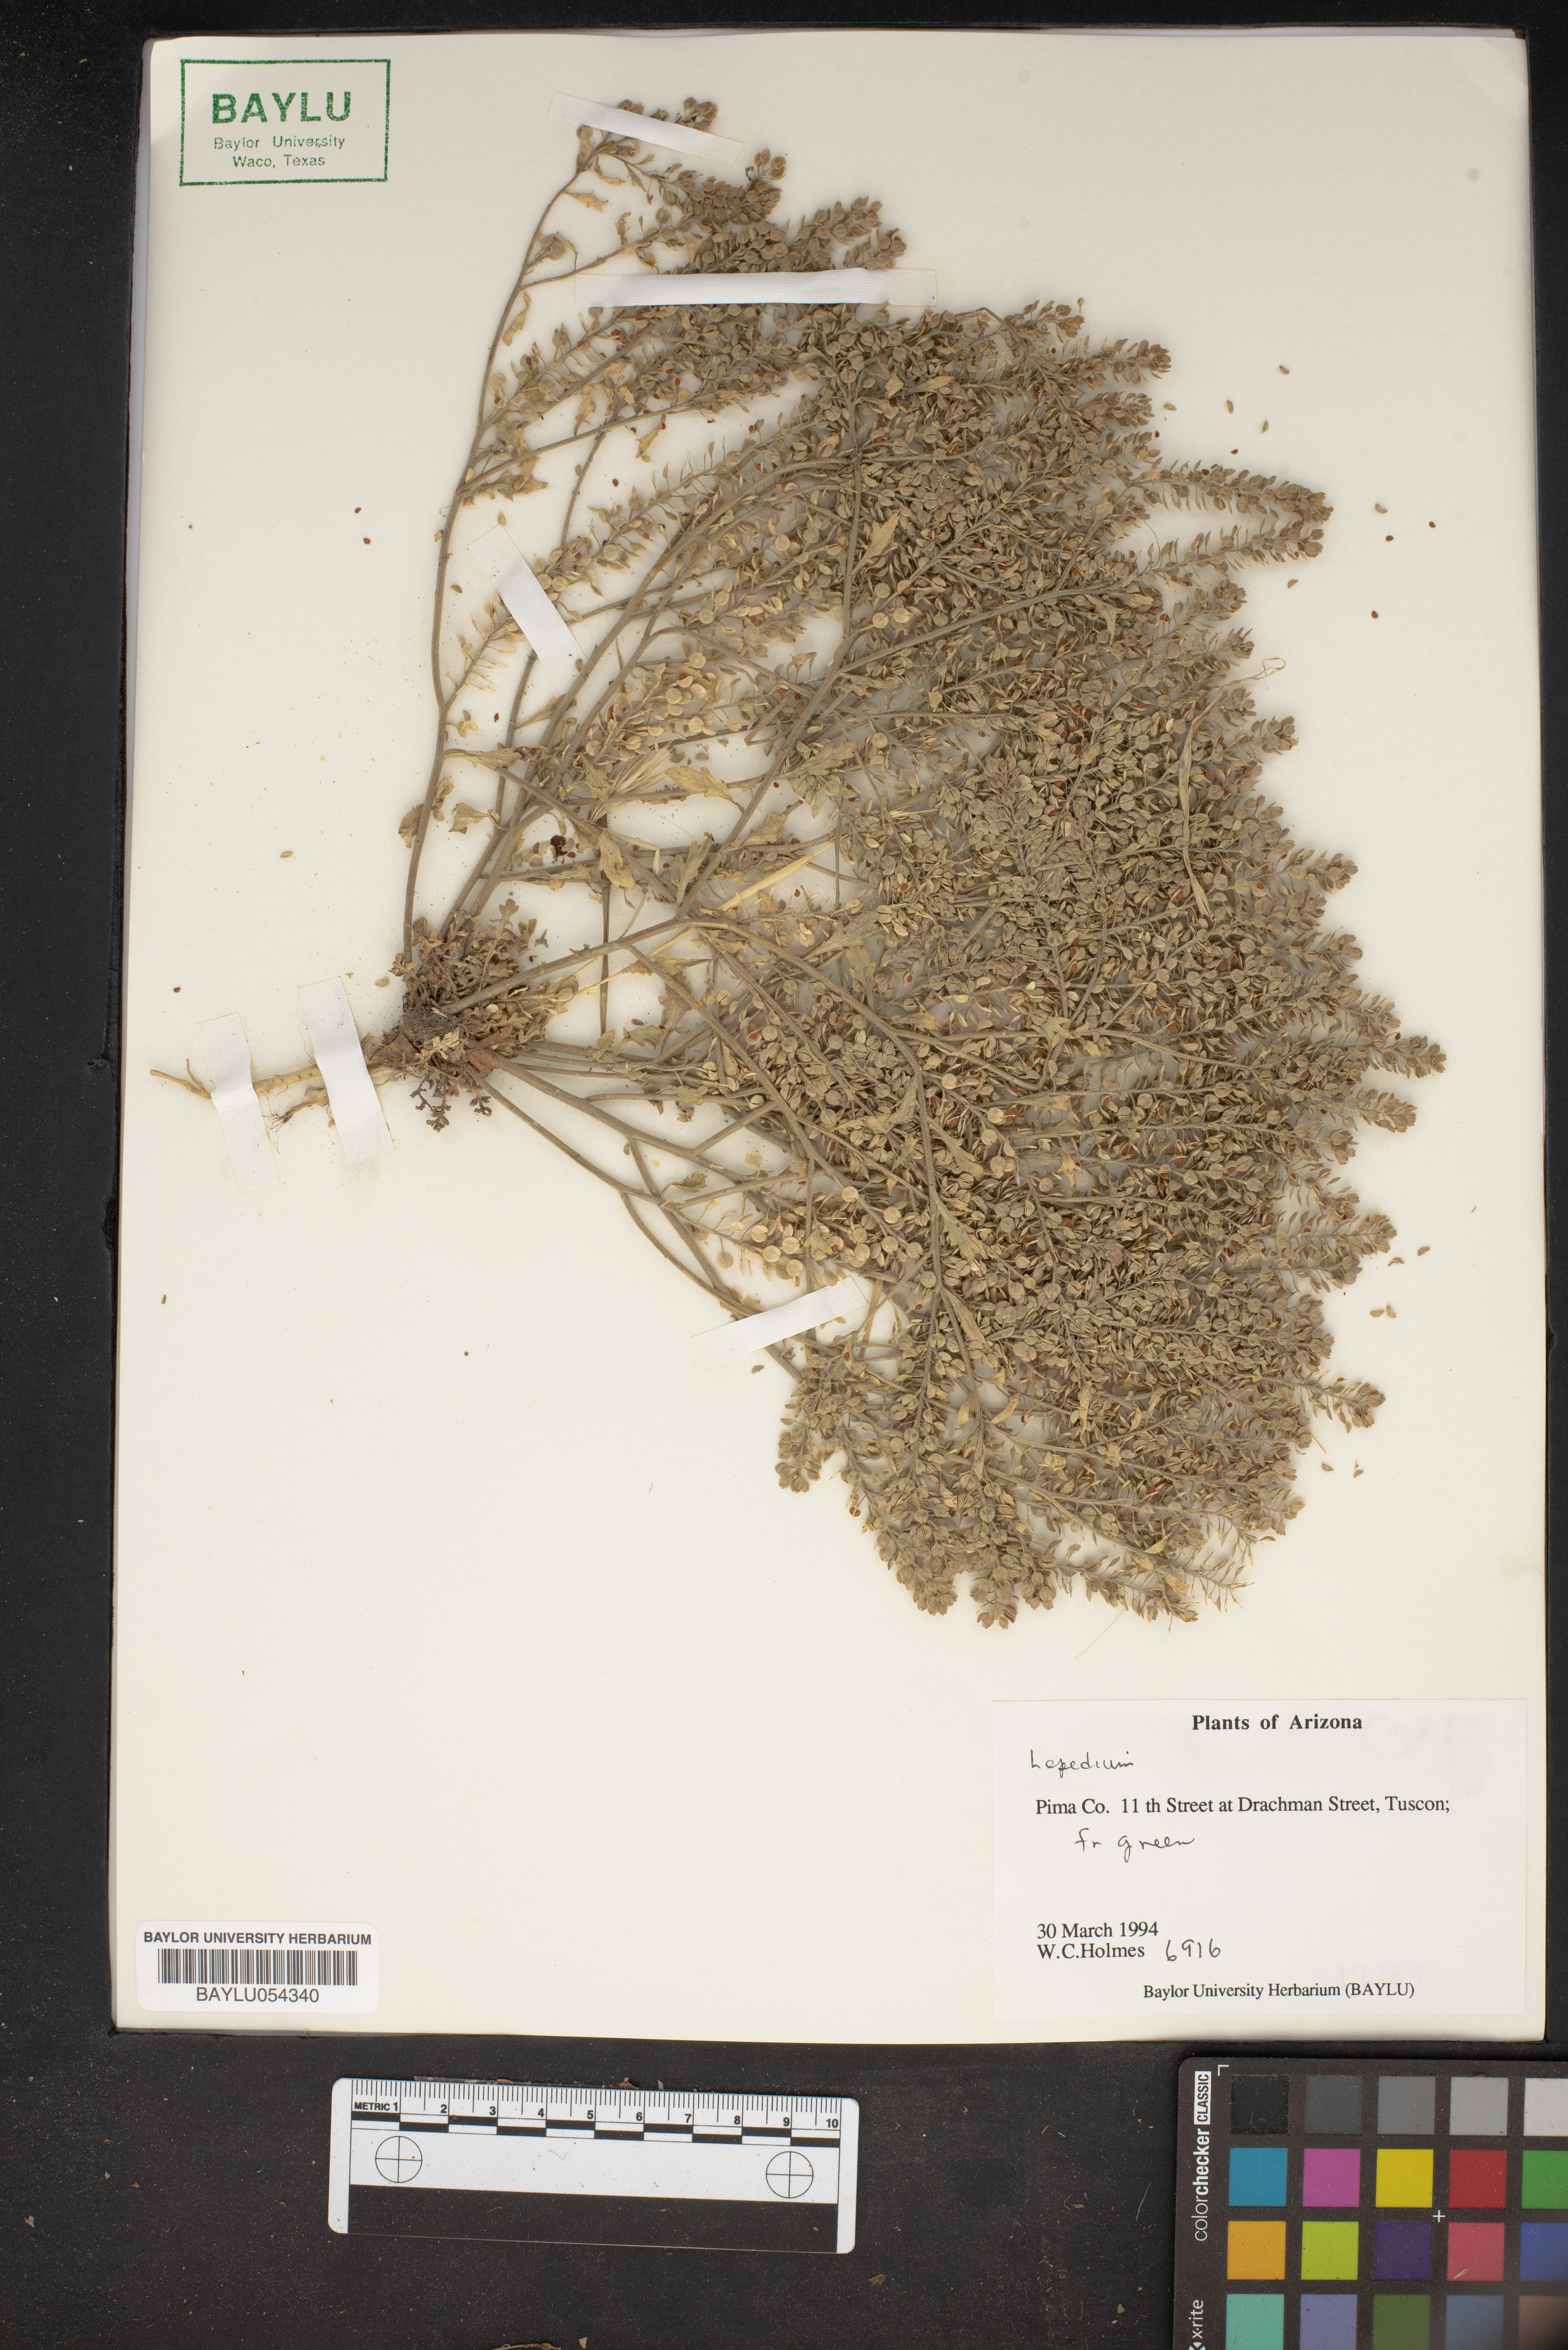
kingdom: Plantae
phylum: Tracheophyta
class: Magnoliopsida
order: Brassicales
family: Brassicaceae
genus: Lepidium
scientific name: Lepidium
